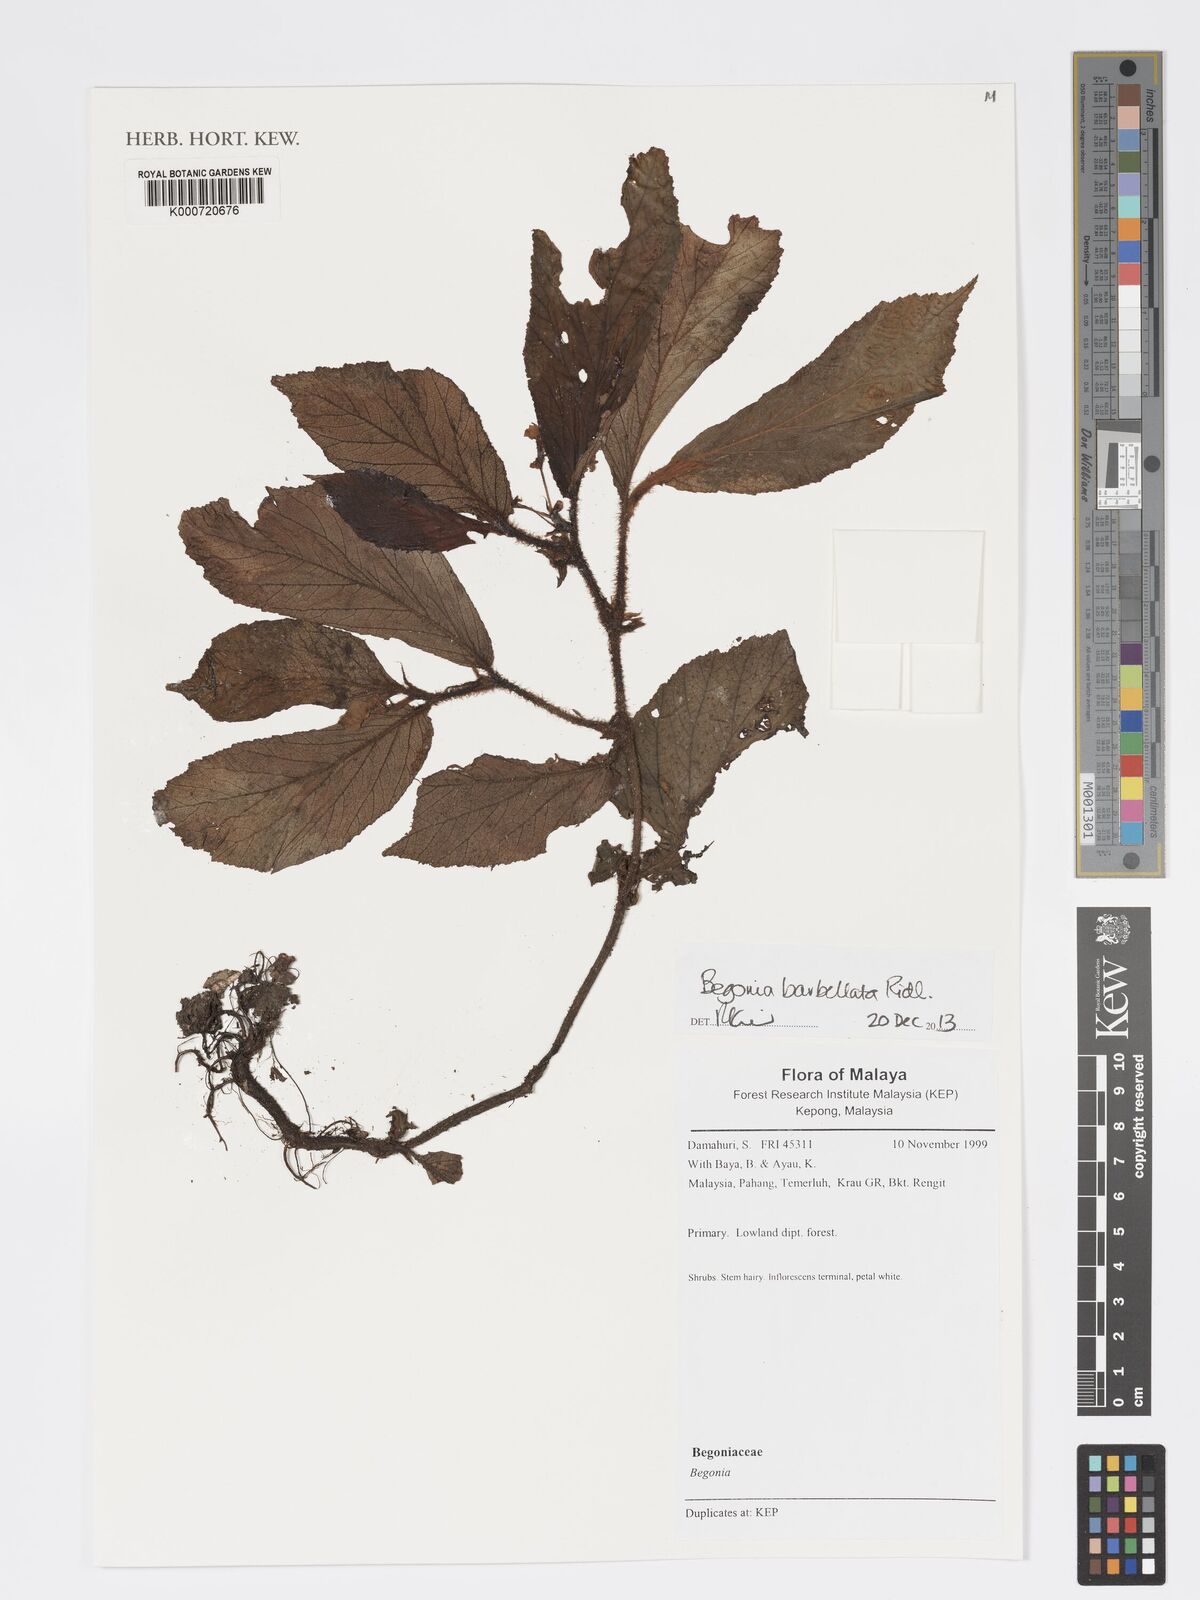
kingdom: Plantae
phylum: Tracheophyta
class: Magnoliopsida
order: Cucurbitales
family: Begoniaceae
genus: Begonia
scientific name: Begonia barbellata
